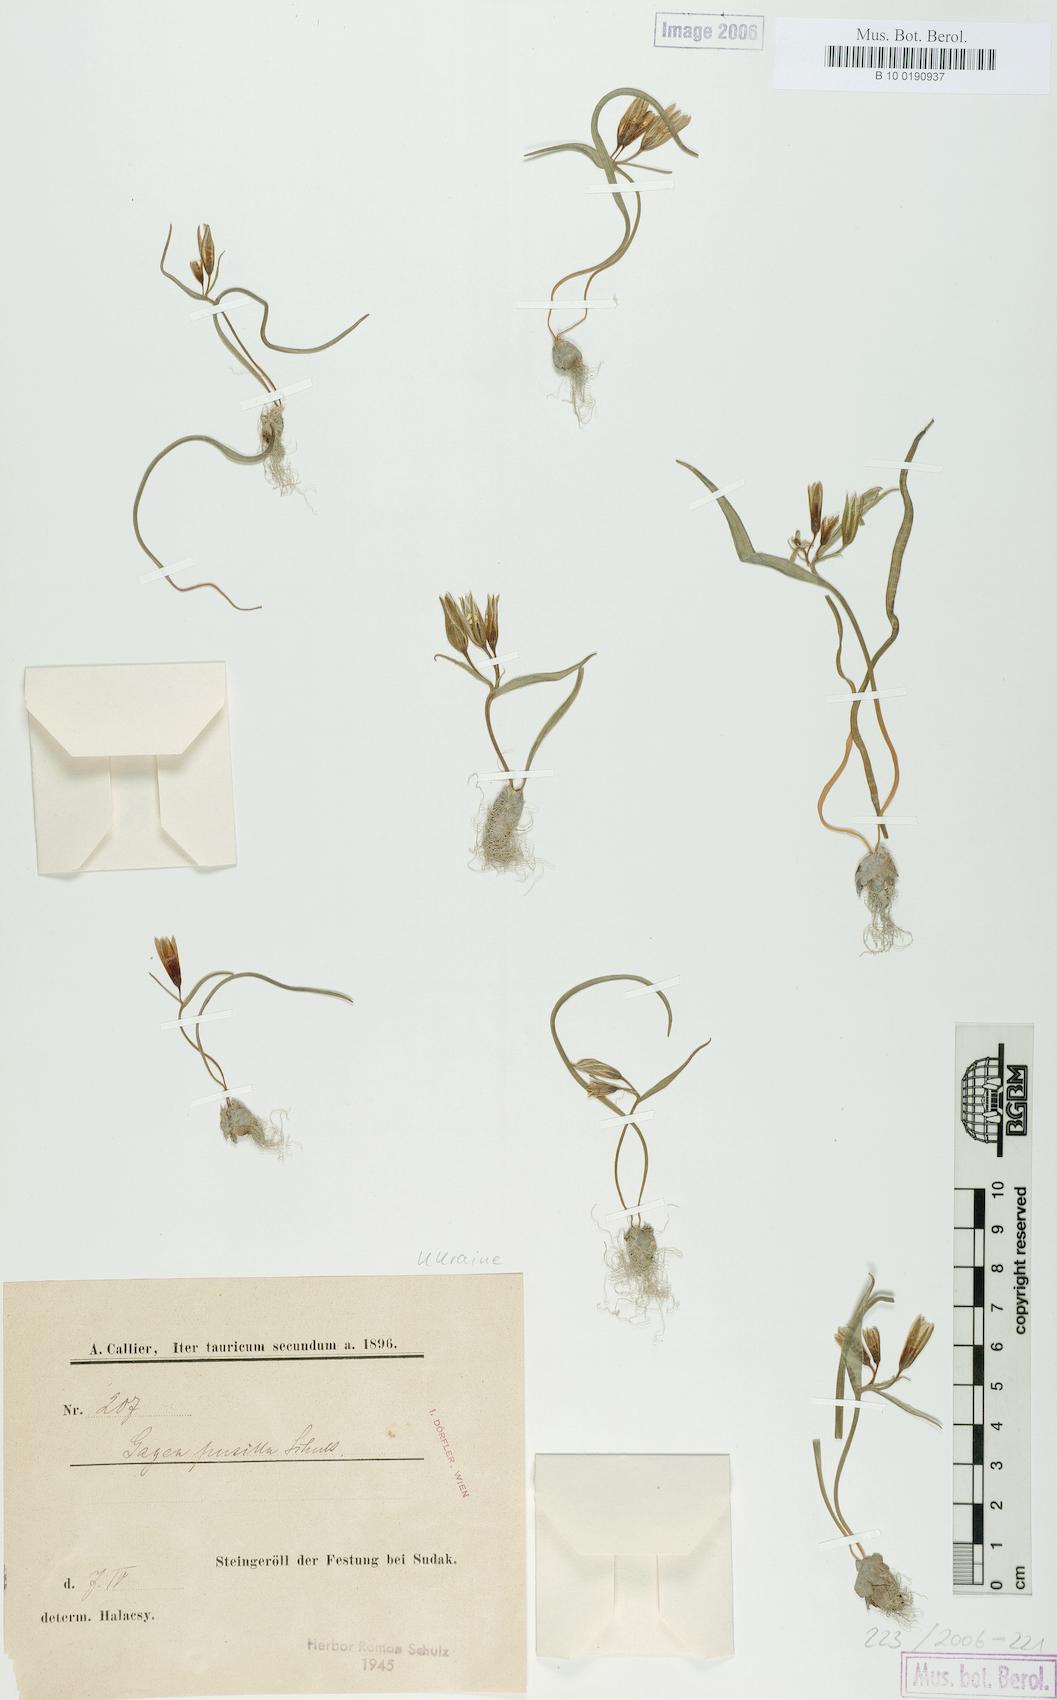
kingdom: Plantae
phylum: Tracheophyta
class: Liliopsida
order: Liliales
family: Liliaceae
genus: Gagea
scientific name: Gagea pusilla
